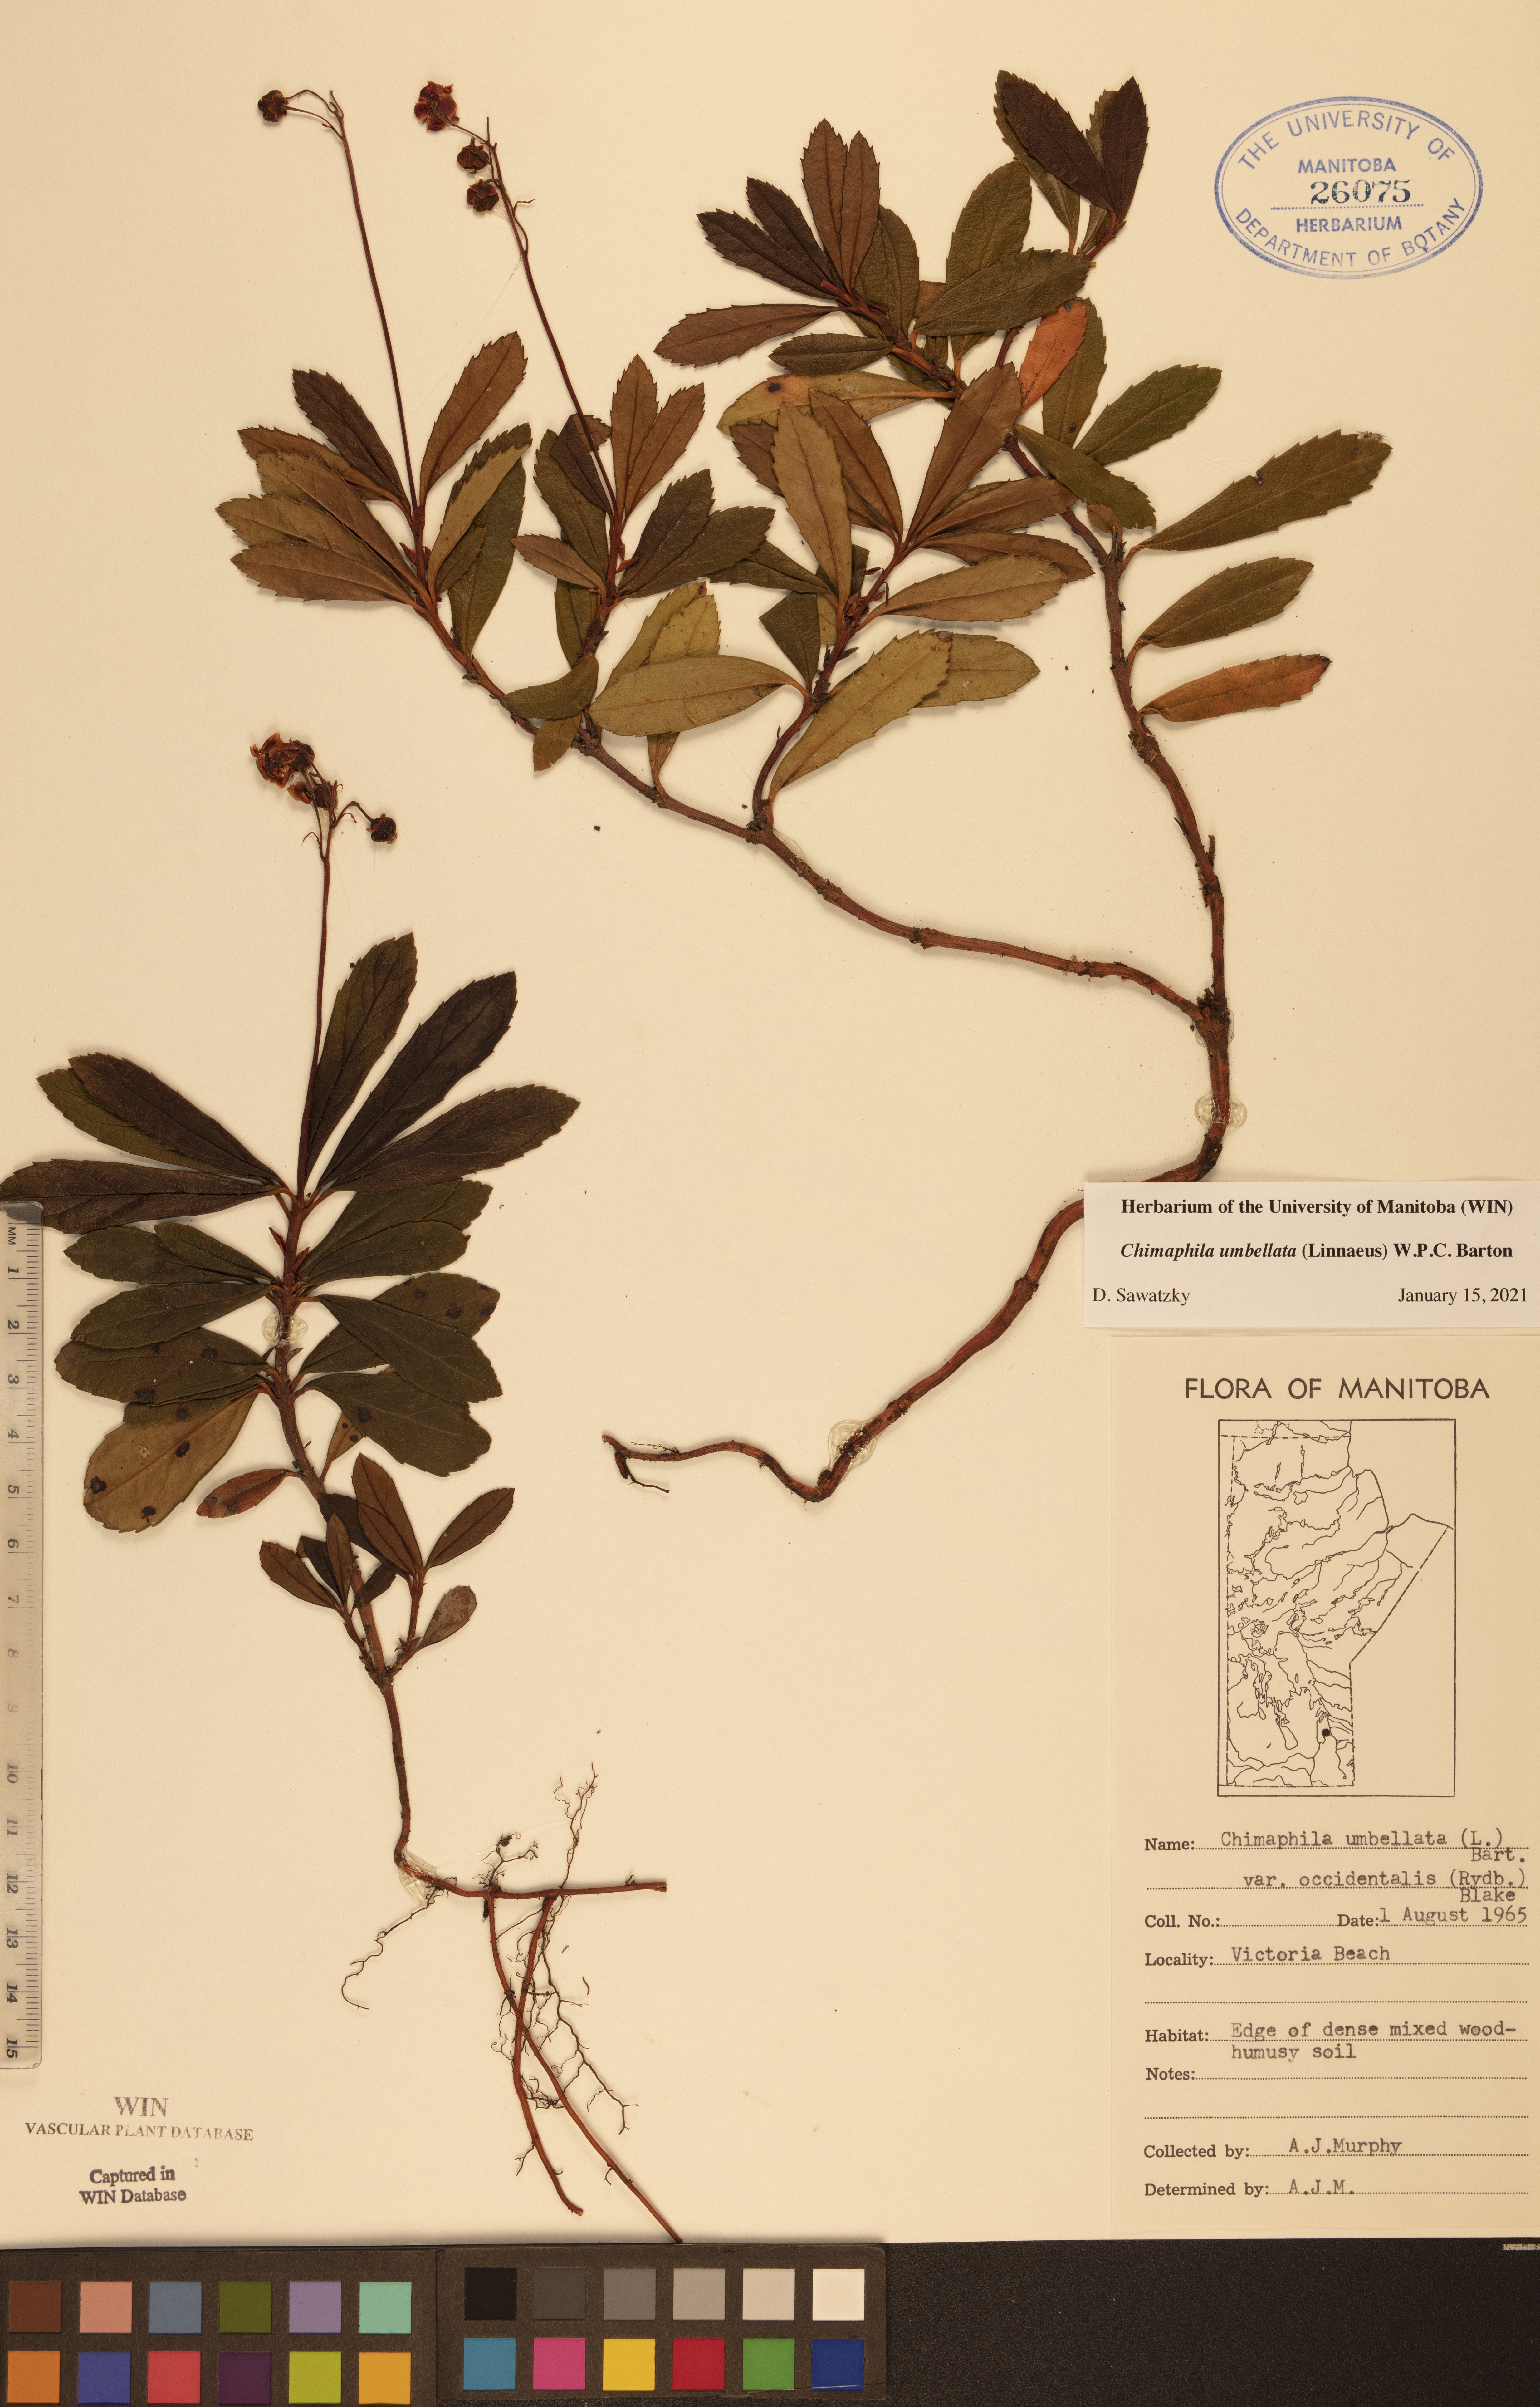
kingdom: Plantae
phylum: Tracheophyta
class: Magnoliopsida
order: Ericales
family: Ericaceae
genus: Chimaphila
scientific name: Chimaphila umbellata
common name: Pipsissewa
